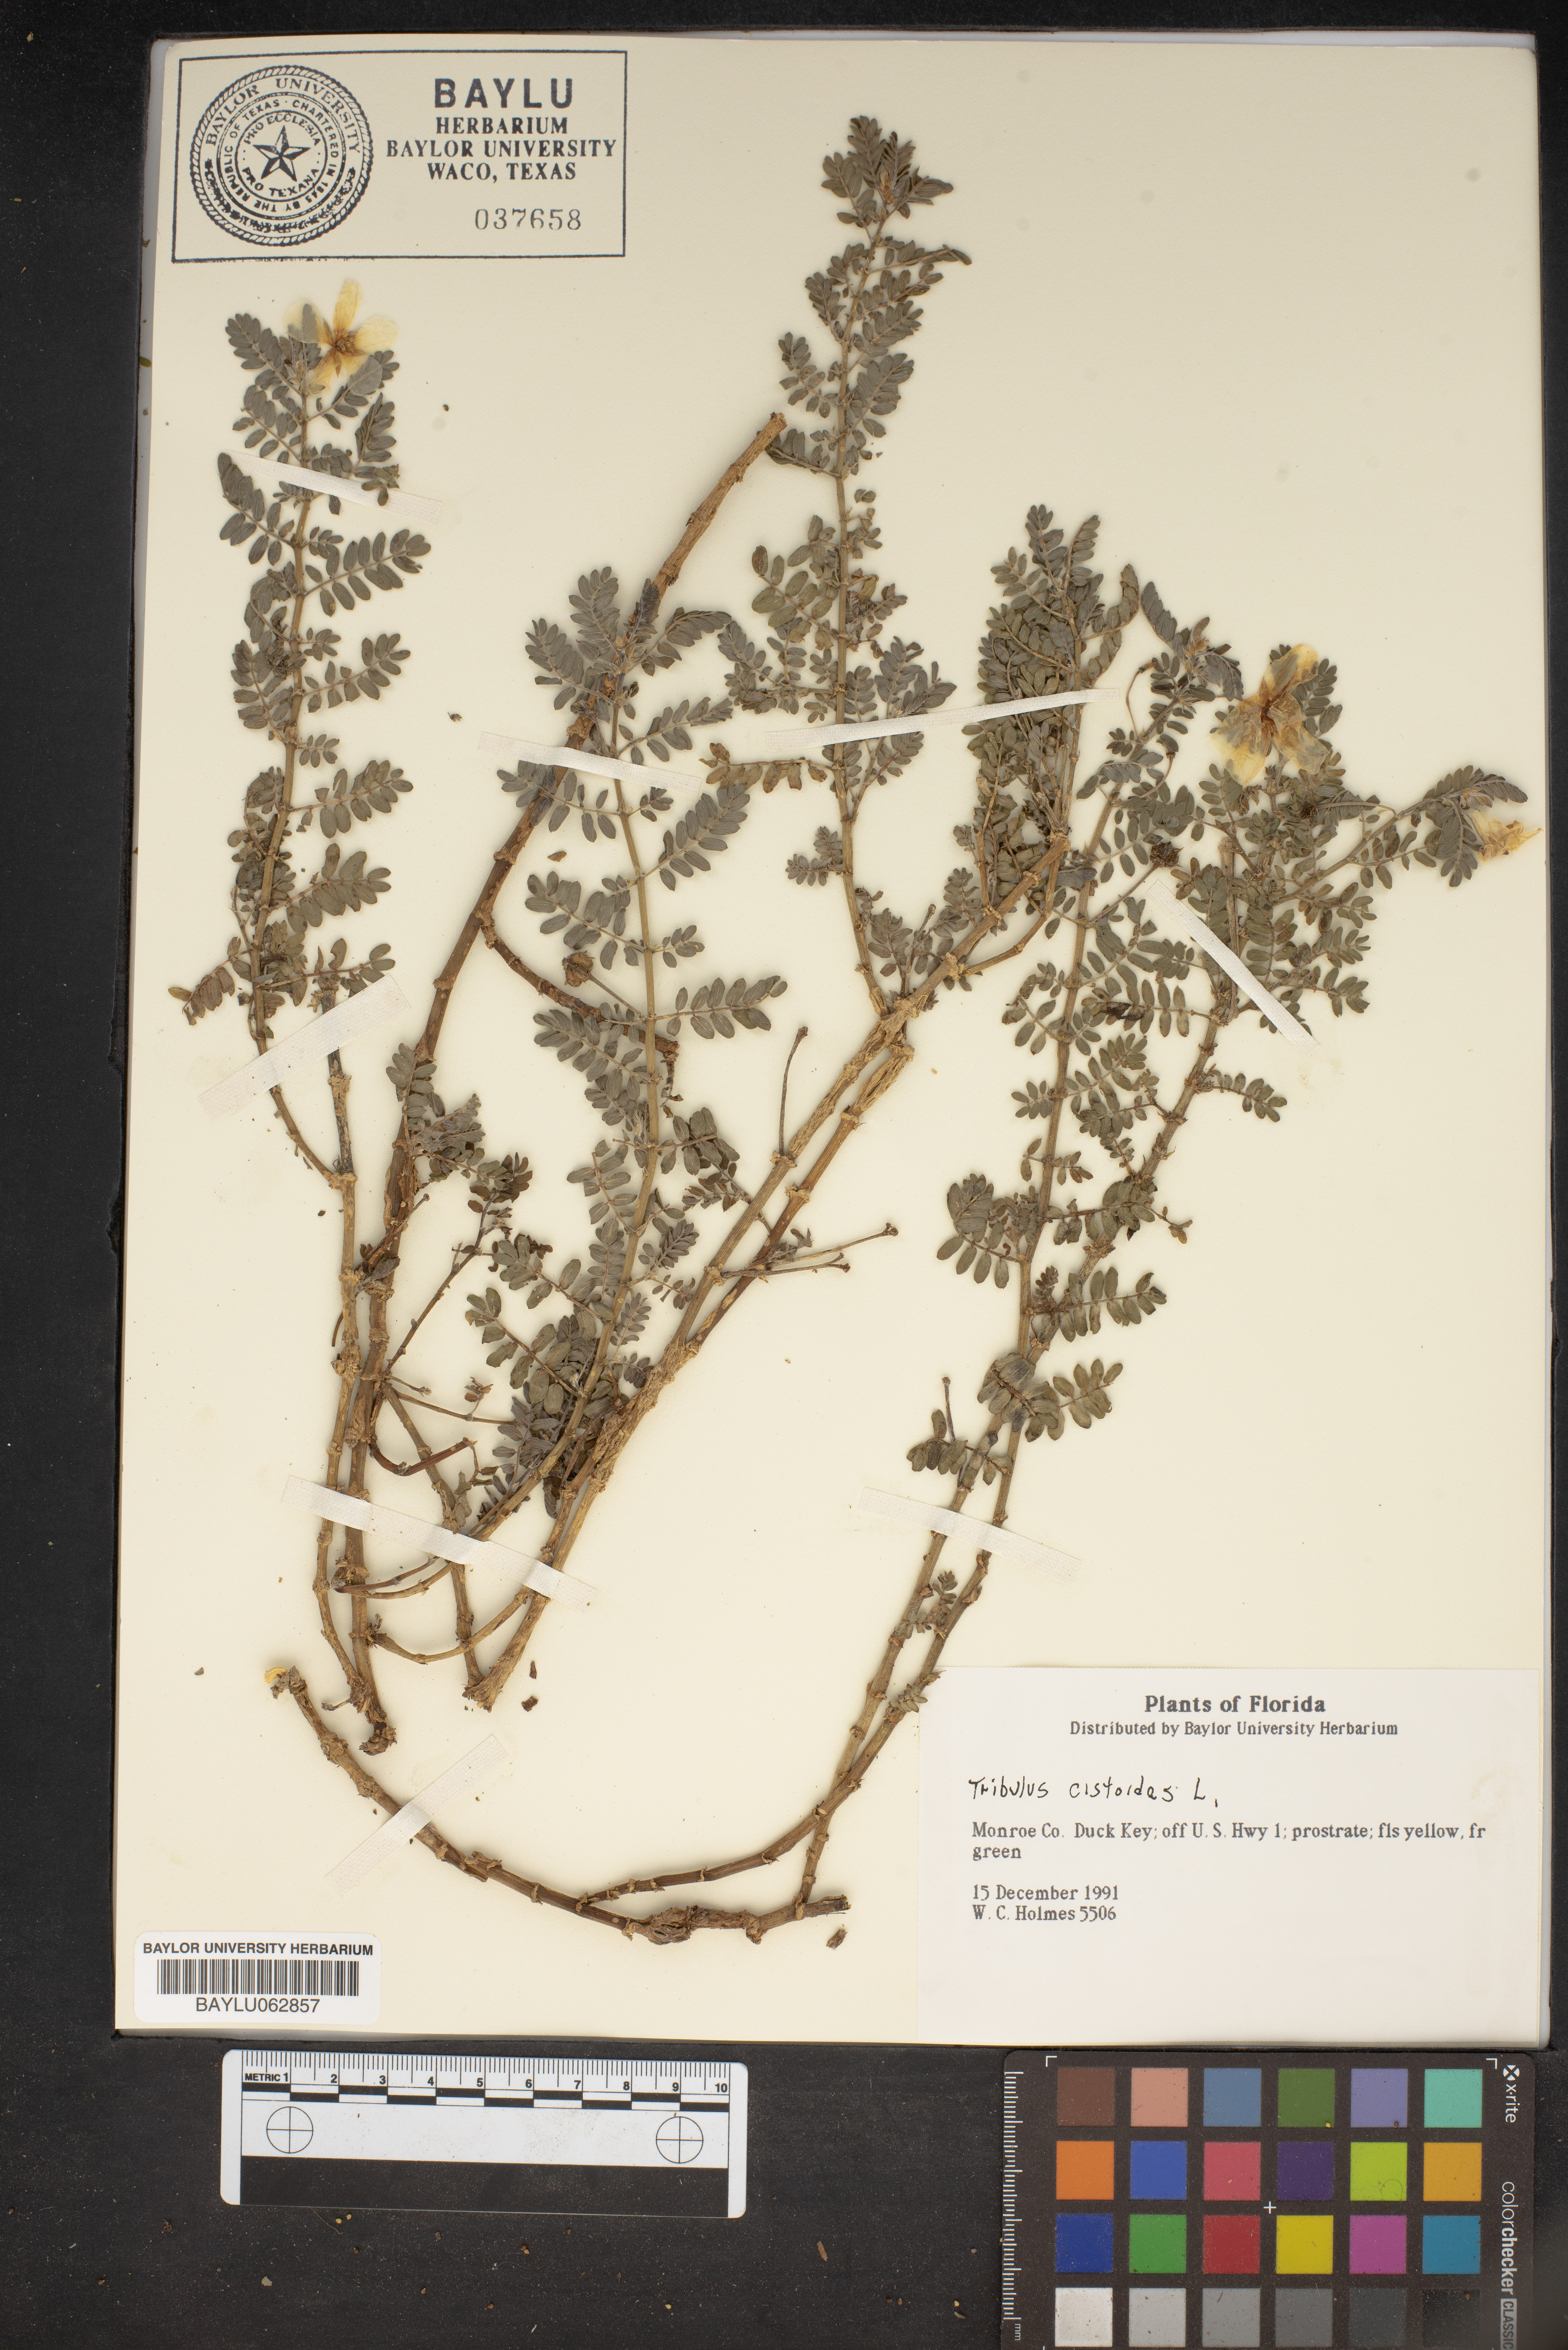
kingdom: Plantae
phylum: Tracheophyta
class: Magnoliopsida
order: Zygophyllales
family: Zygophyllaceae
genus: Tribulus
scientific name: Tribulus cistoides
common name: Jamaican feverplant
